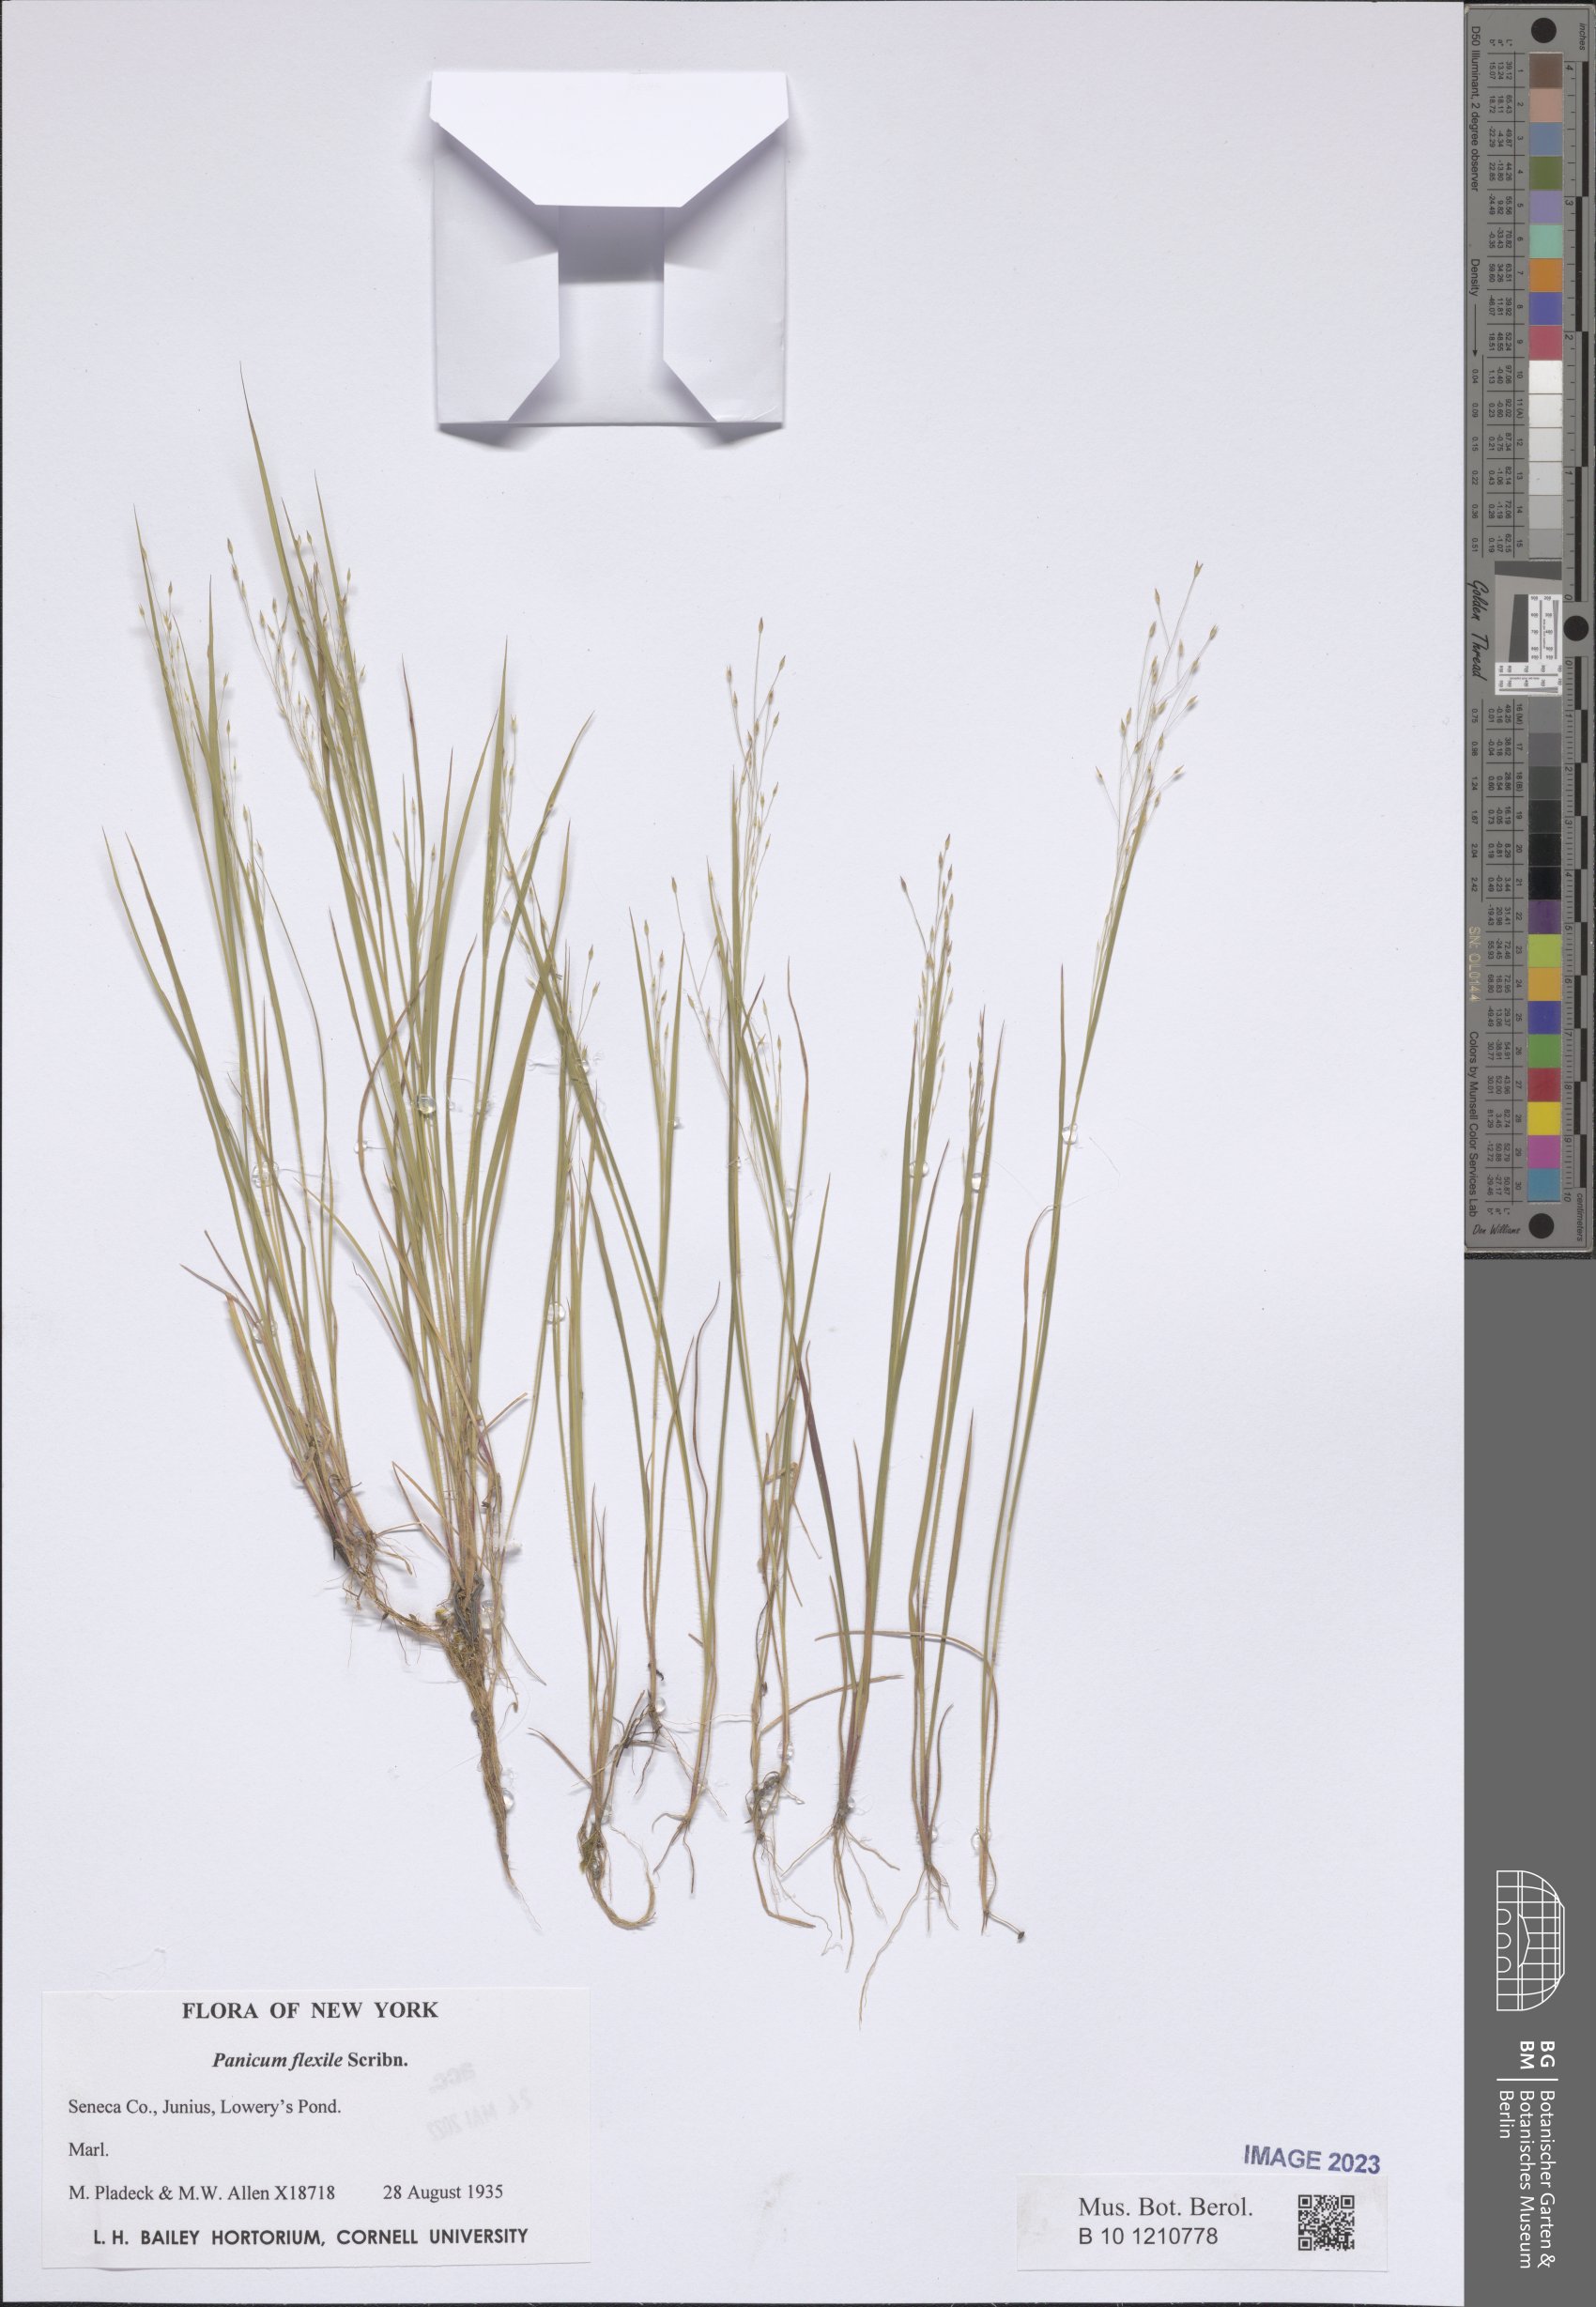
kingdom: Plantae
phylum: Tracheophyta
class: Liliopsida
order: Poales
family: Poaceae
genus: Panicum
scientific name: Panicum flexile
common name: Wiry panicgrass
